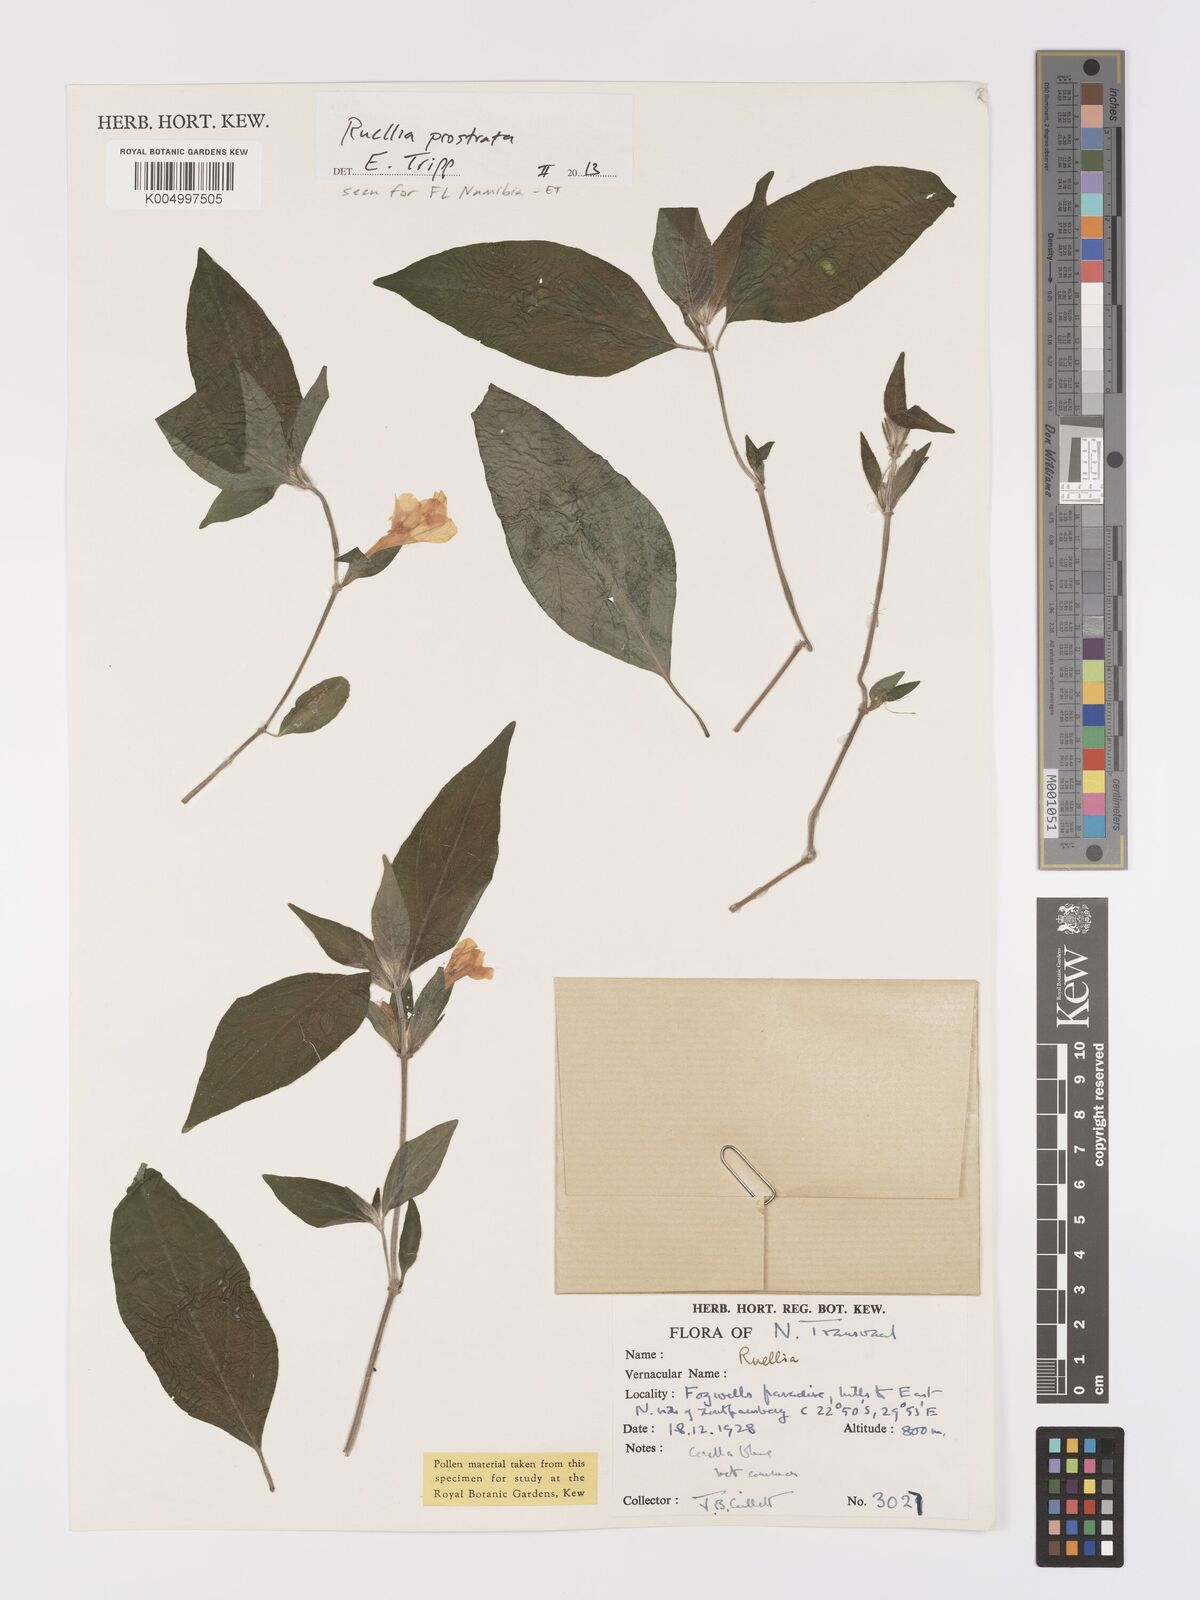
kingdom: Plantae
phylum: Tracheophyta
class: Magnoliopsida
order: Lamiales
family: Acanthaceae
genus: Ruellia
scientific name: Ruellia
